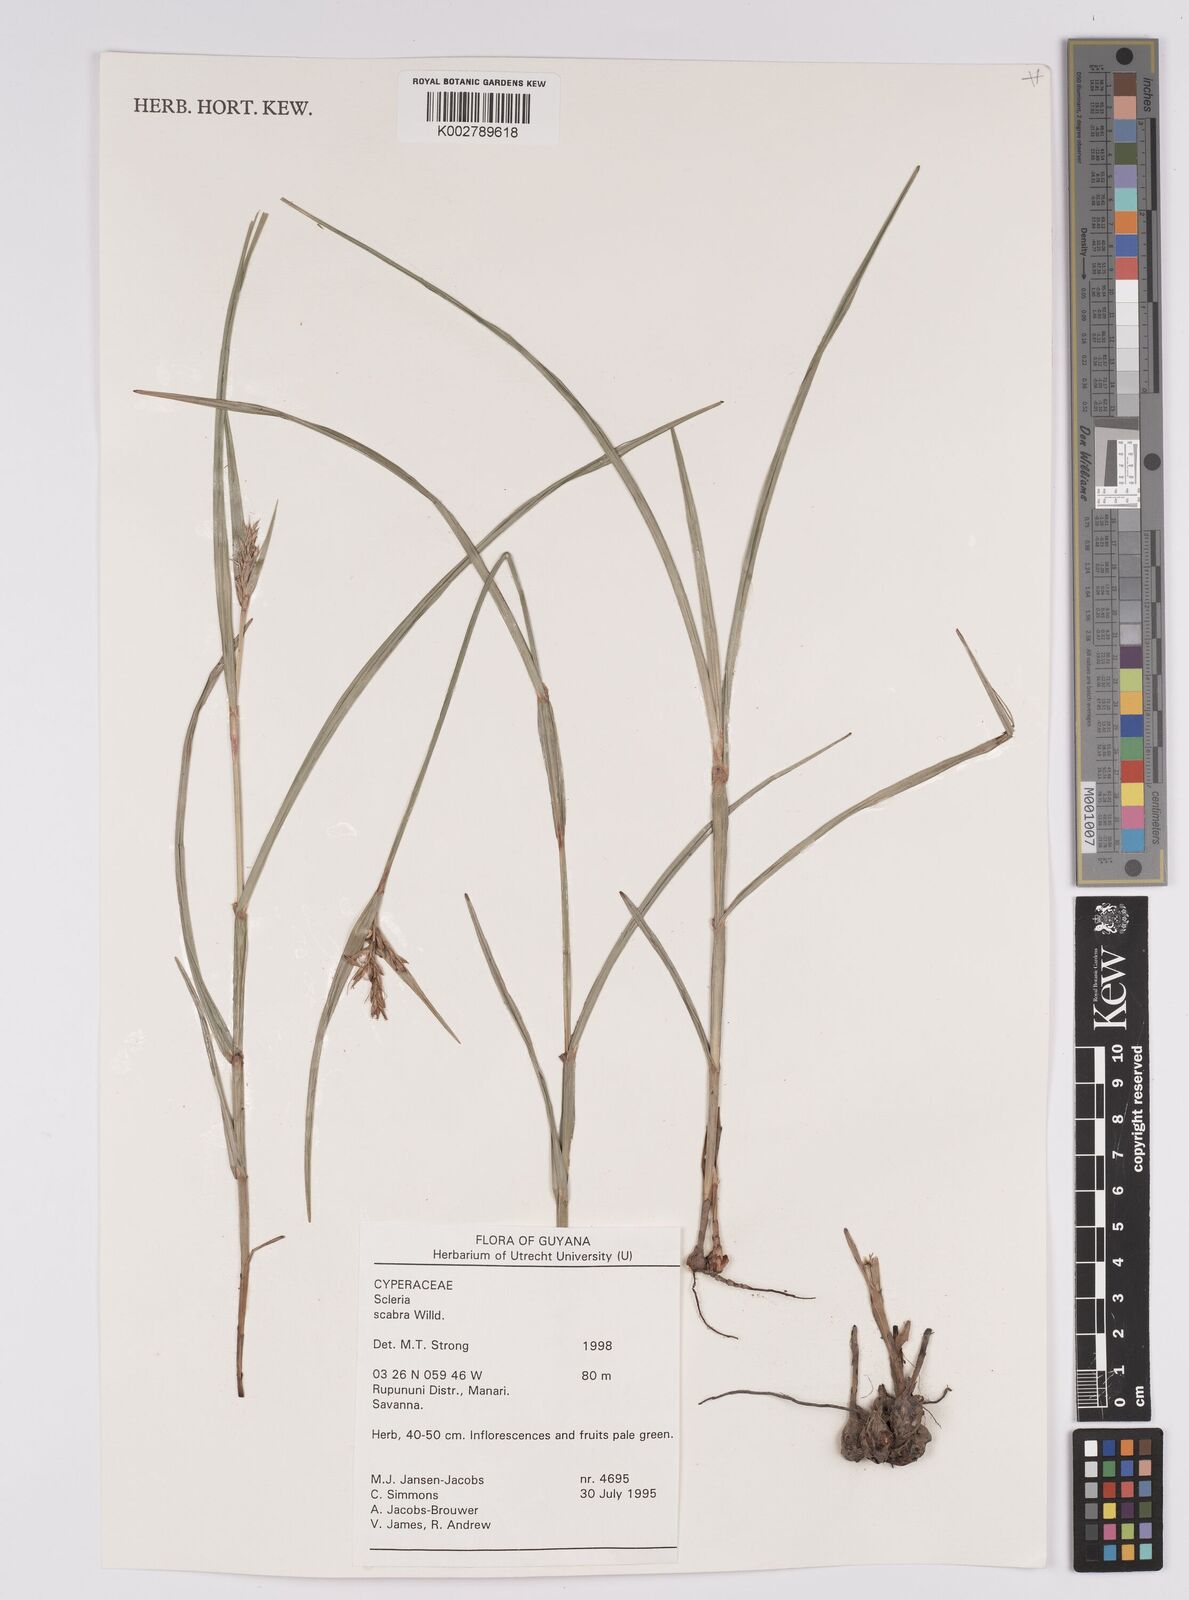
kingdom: Plantae
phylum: Tracheophyta
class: Liliopsida
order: Poales
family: Cyperaceae
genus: Scleria
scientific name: Scleria scabra
